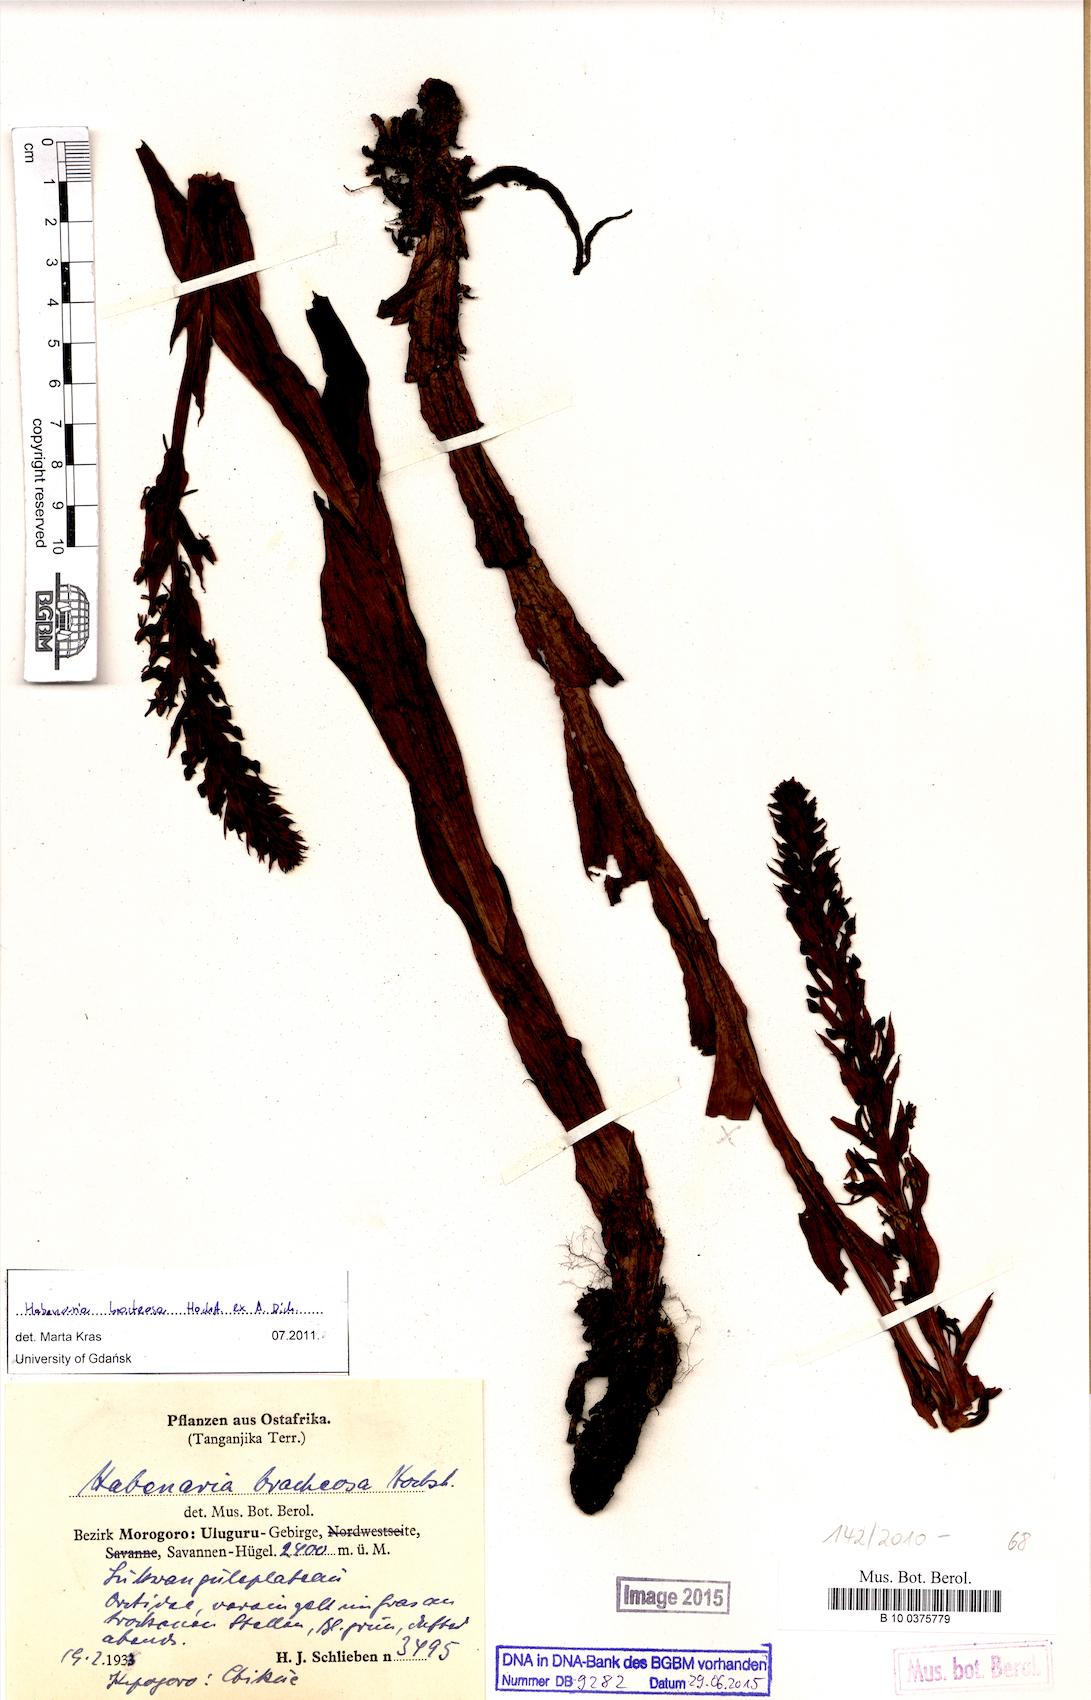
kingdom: Plantae
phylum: Tracheophyta
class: Liliopsida
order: Asparagales
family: Orchidaceae
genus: Habenaria
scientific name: Habenaria bracteosa
